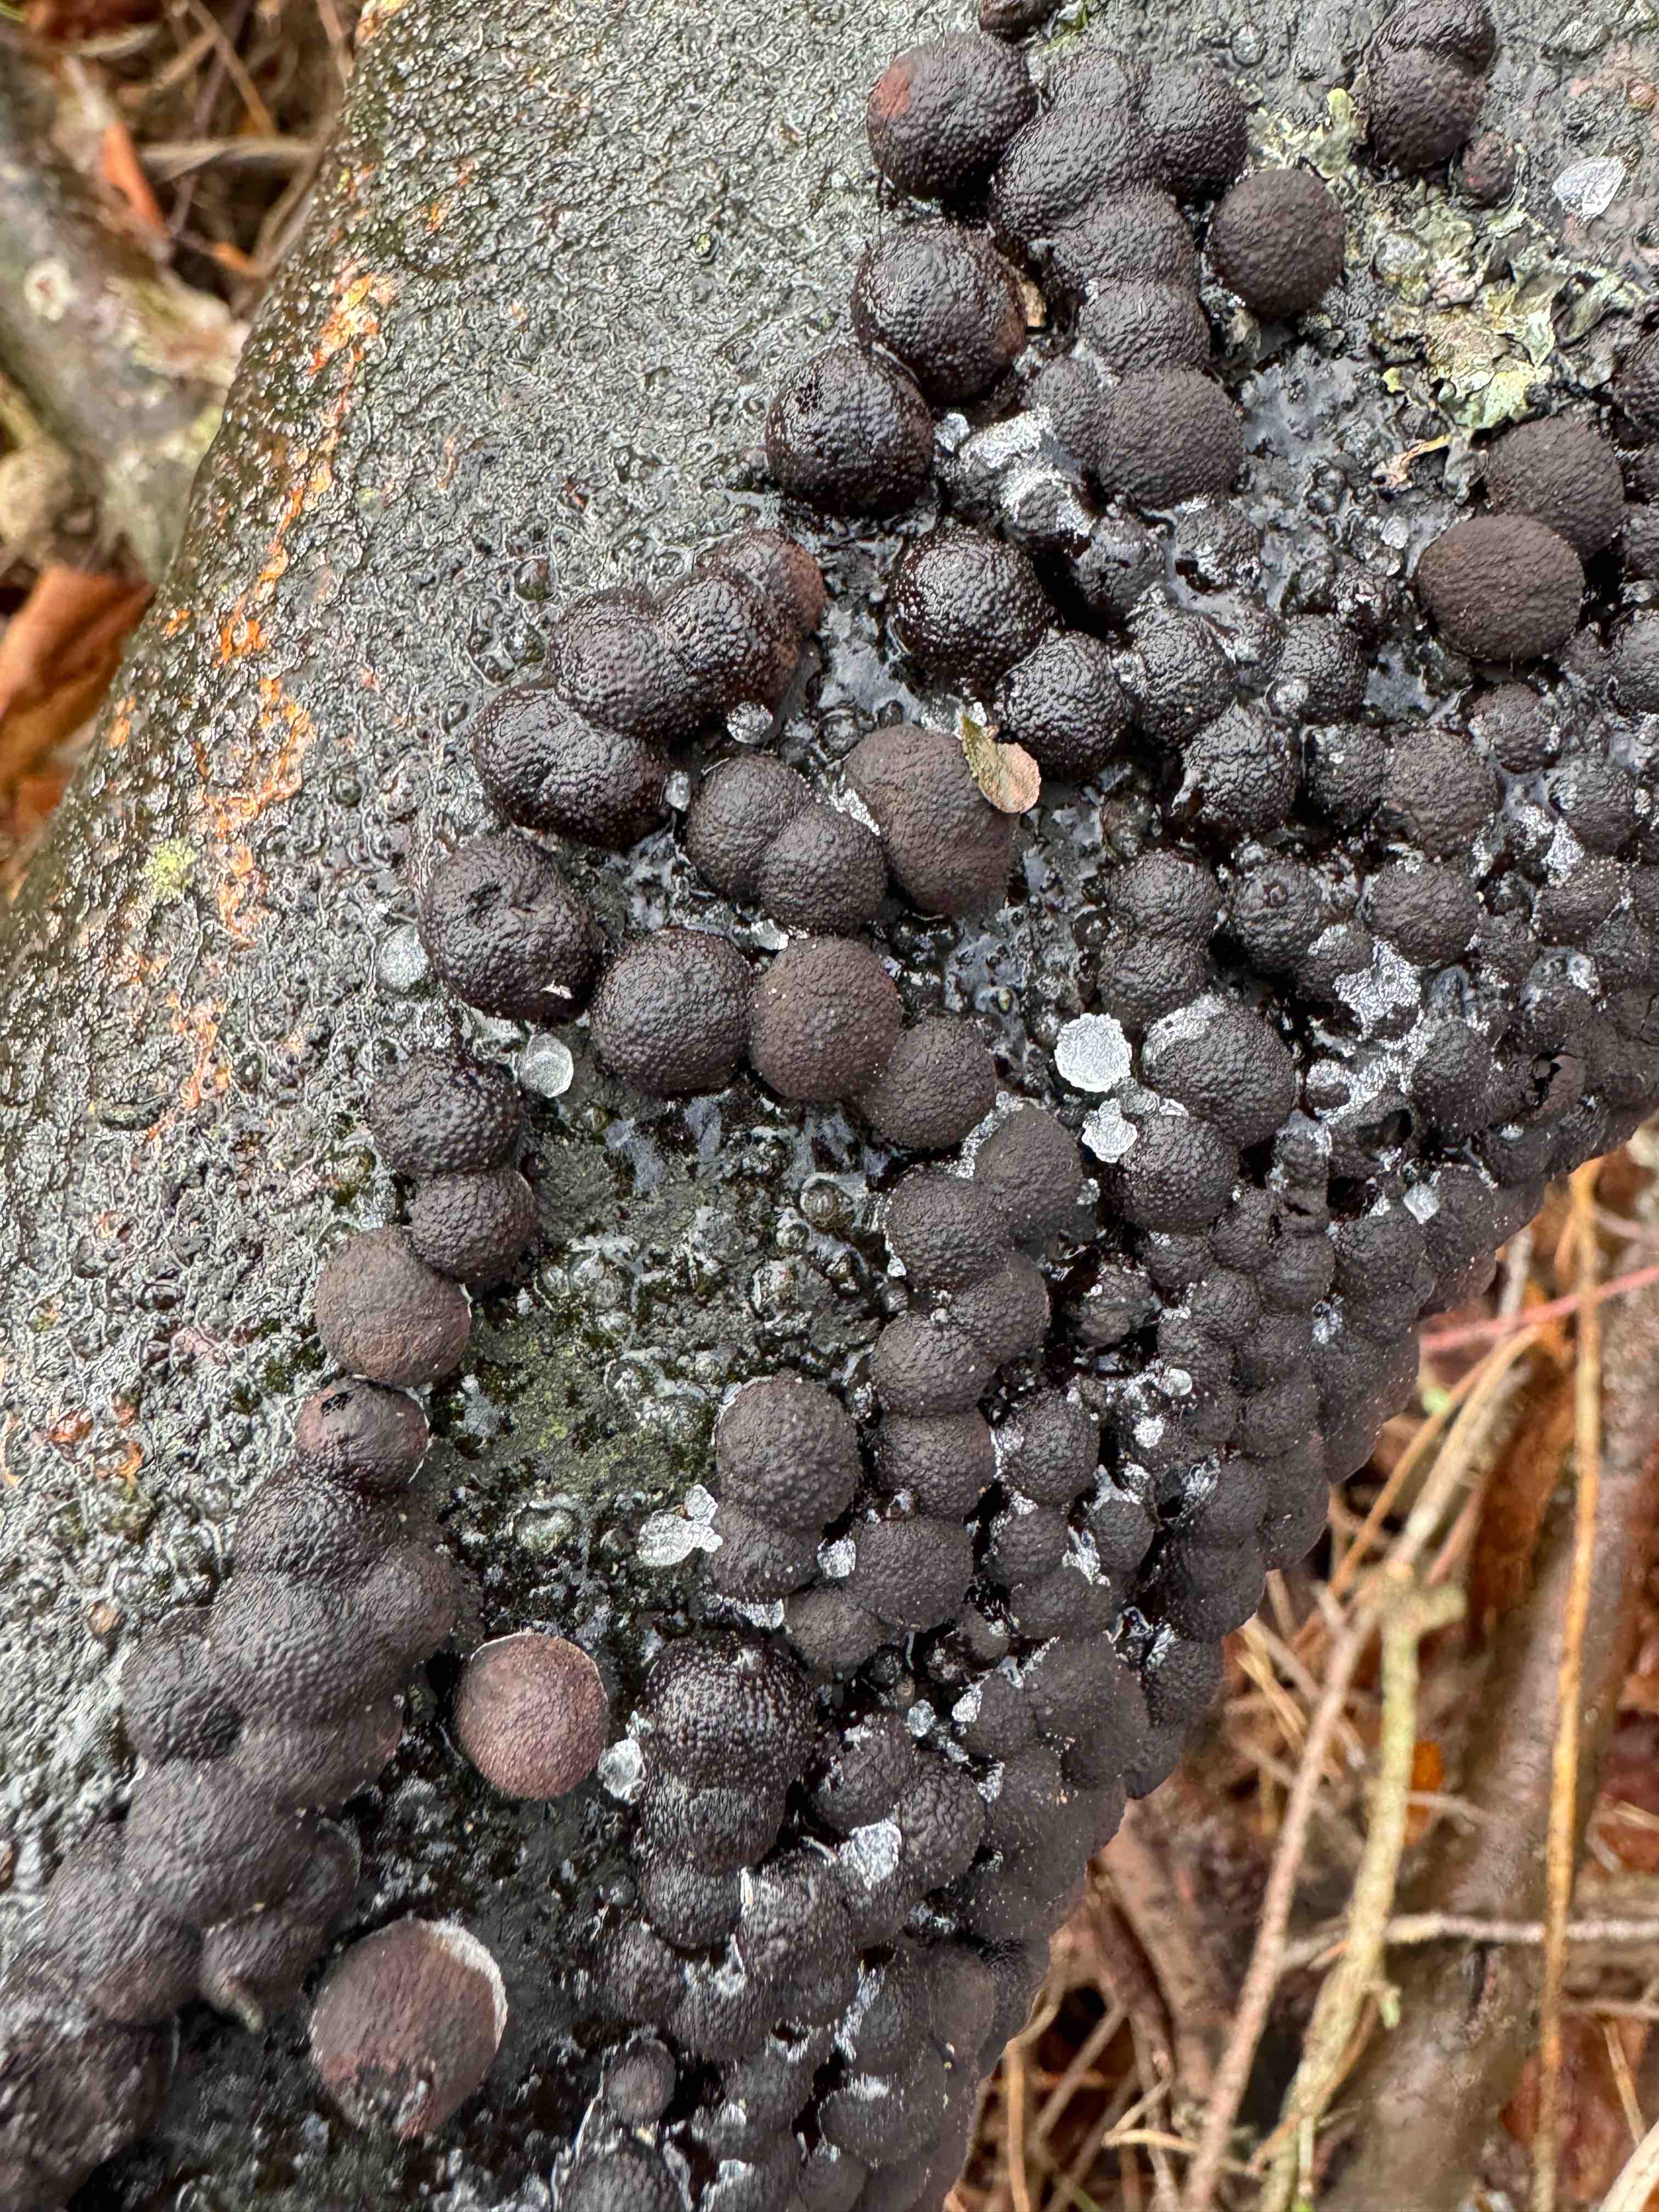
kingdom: Fungi
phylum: Ascomycota
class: Sordariomycetes
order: Xylariales
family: Hypoxylaceae
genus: Hypoxylon
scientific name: Hypoxylon fragiforme
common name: kuljordbær
